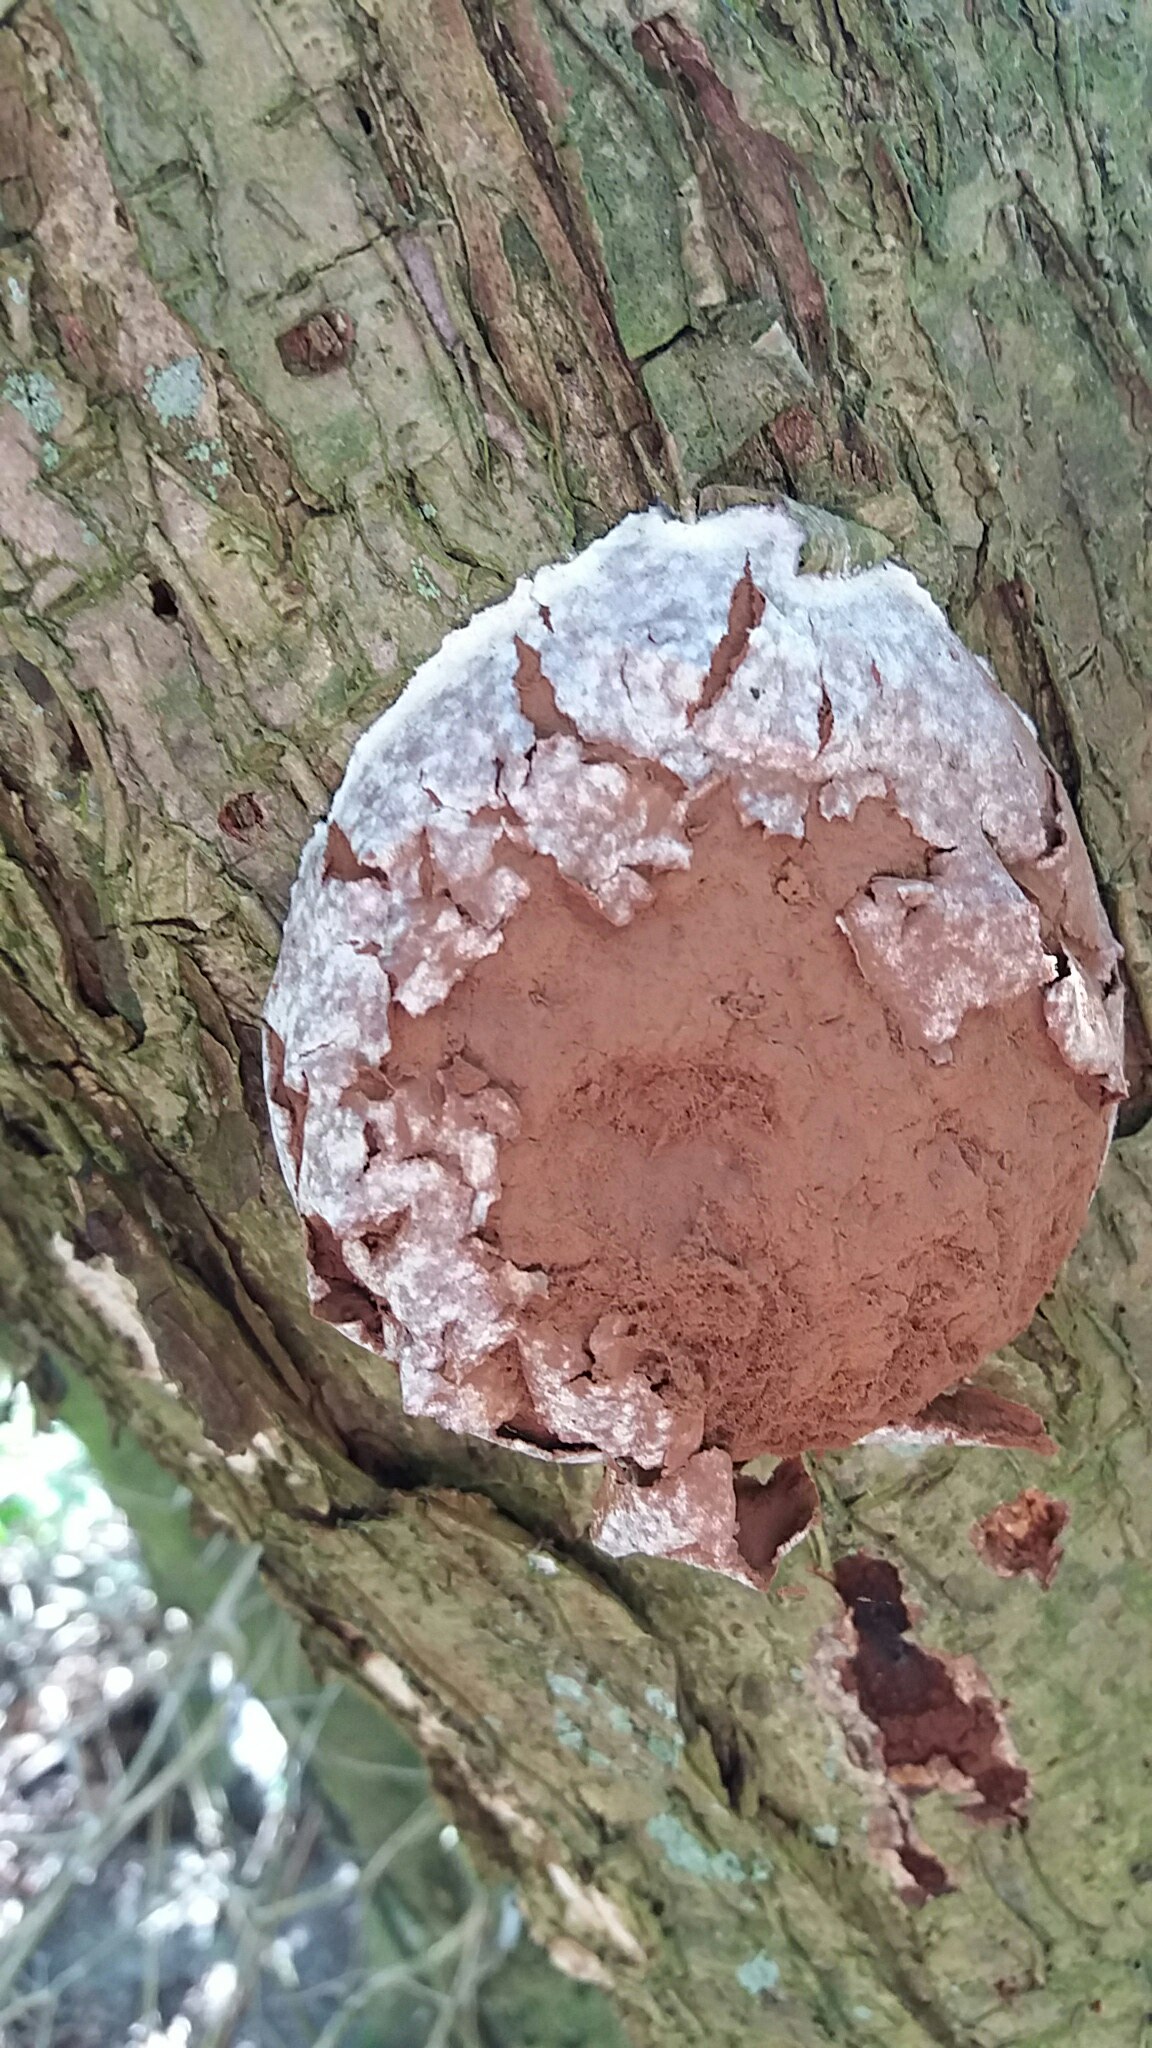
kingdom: Protozoa
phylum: Mycetozoa
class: Myxomycetes
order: Cribrariales
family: Tubiferaceae
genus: Reticularia
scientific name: Reticularia lycoperdon
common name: skinnende støvpude
